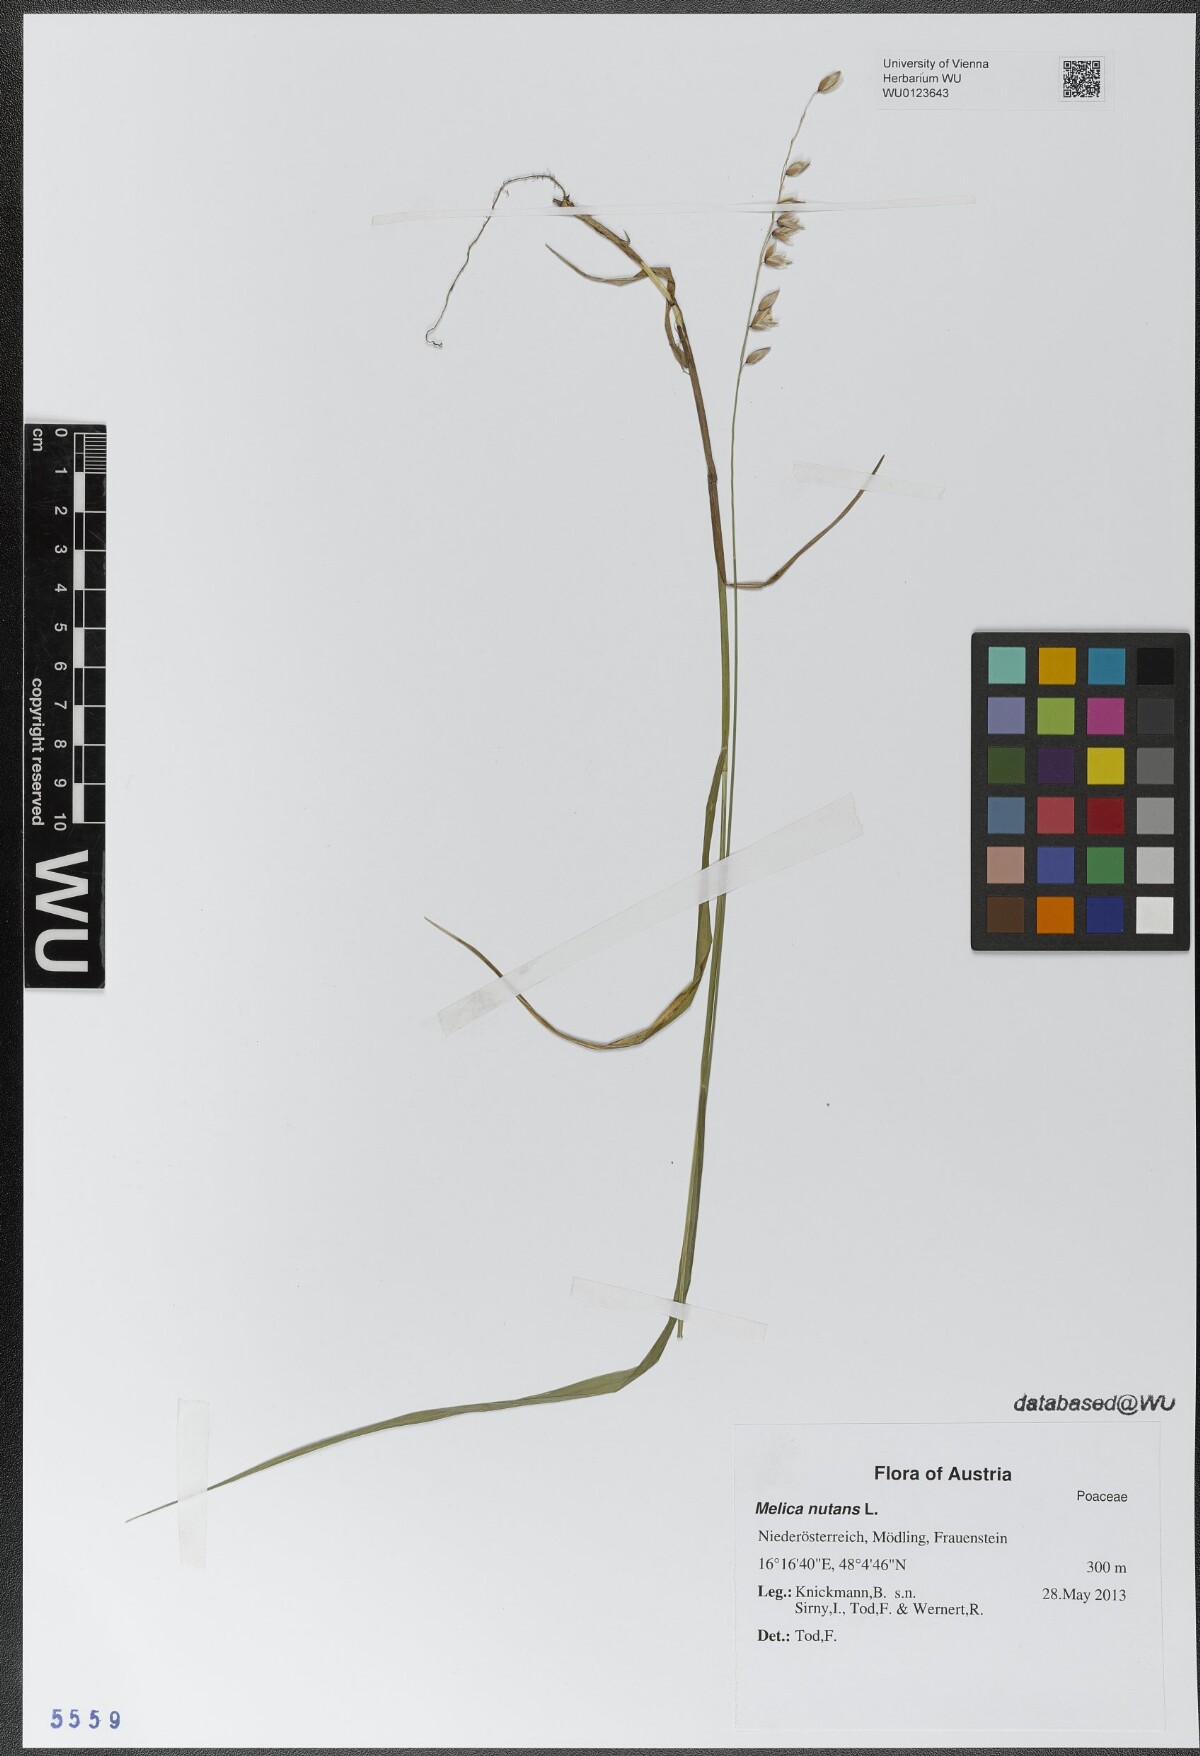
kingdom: Plantae
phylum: Tracheophyta
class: Liliopsida
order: Poales
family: Poaceae
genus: Melica
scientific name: Melica nutans
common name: Mountain melick
